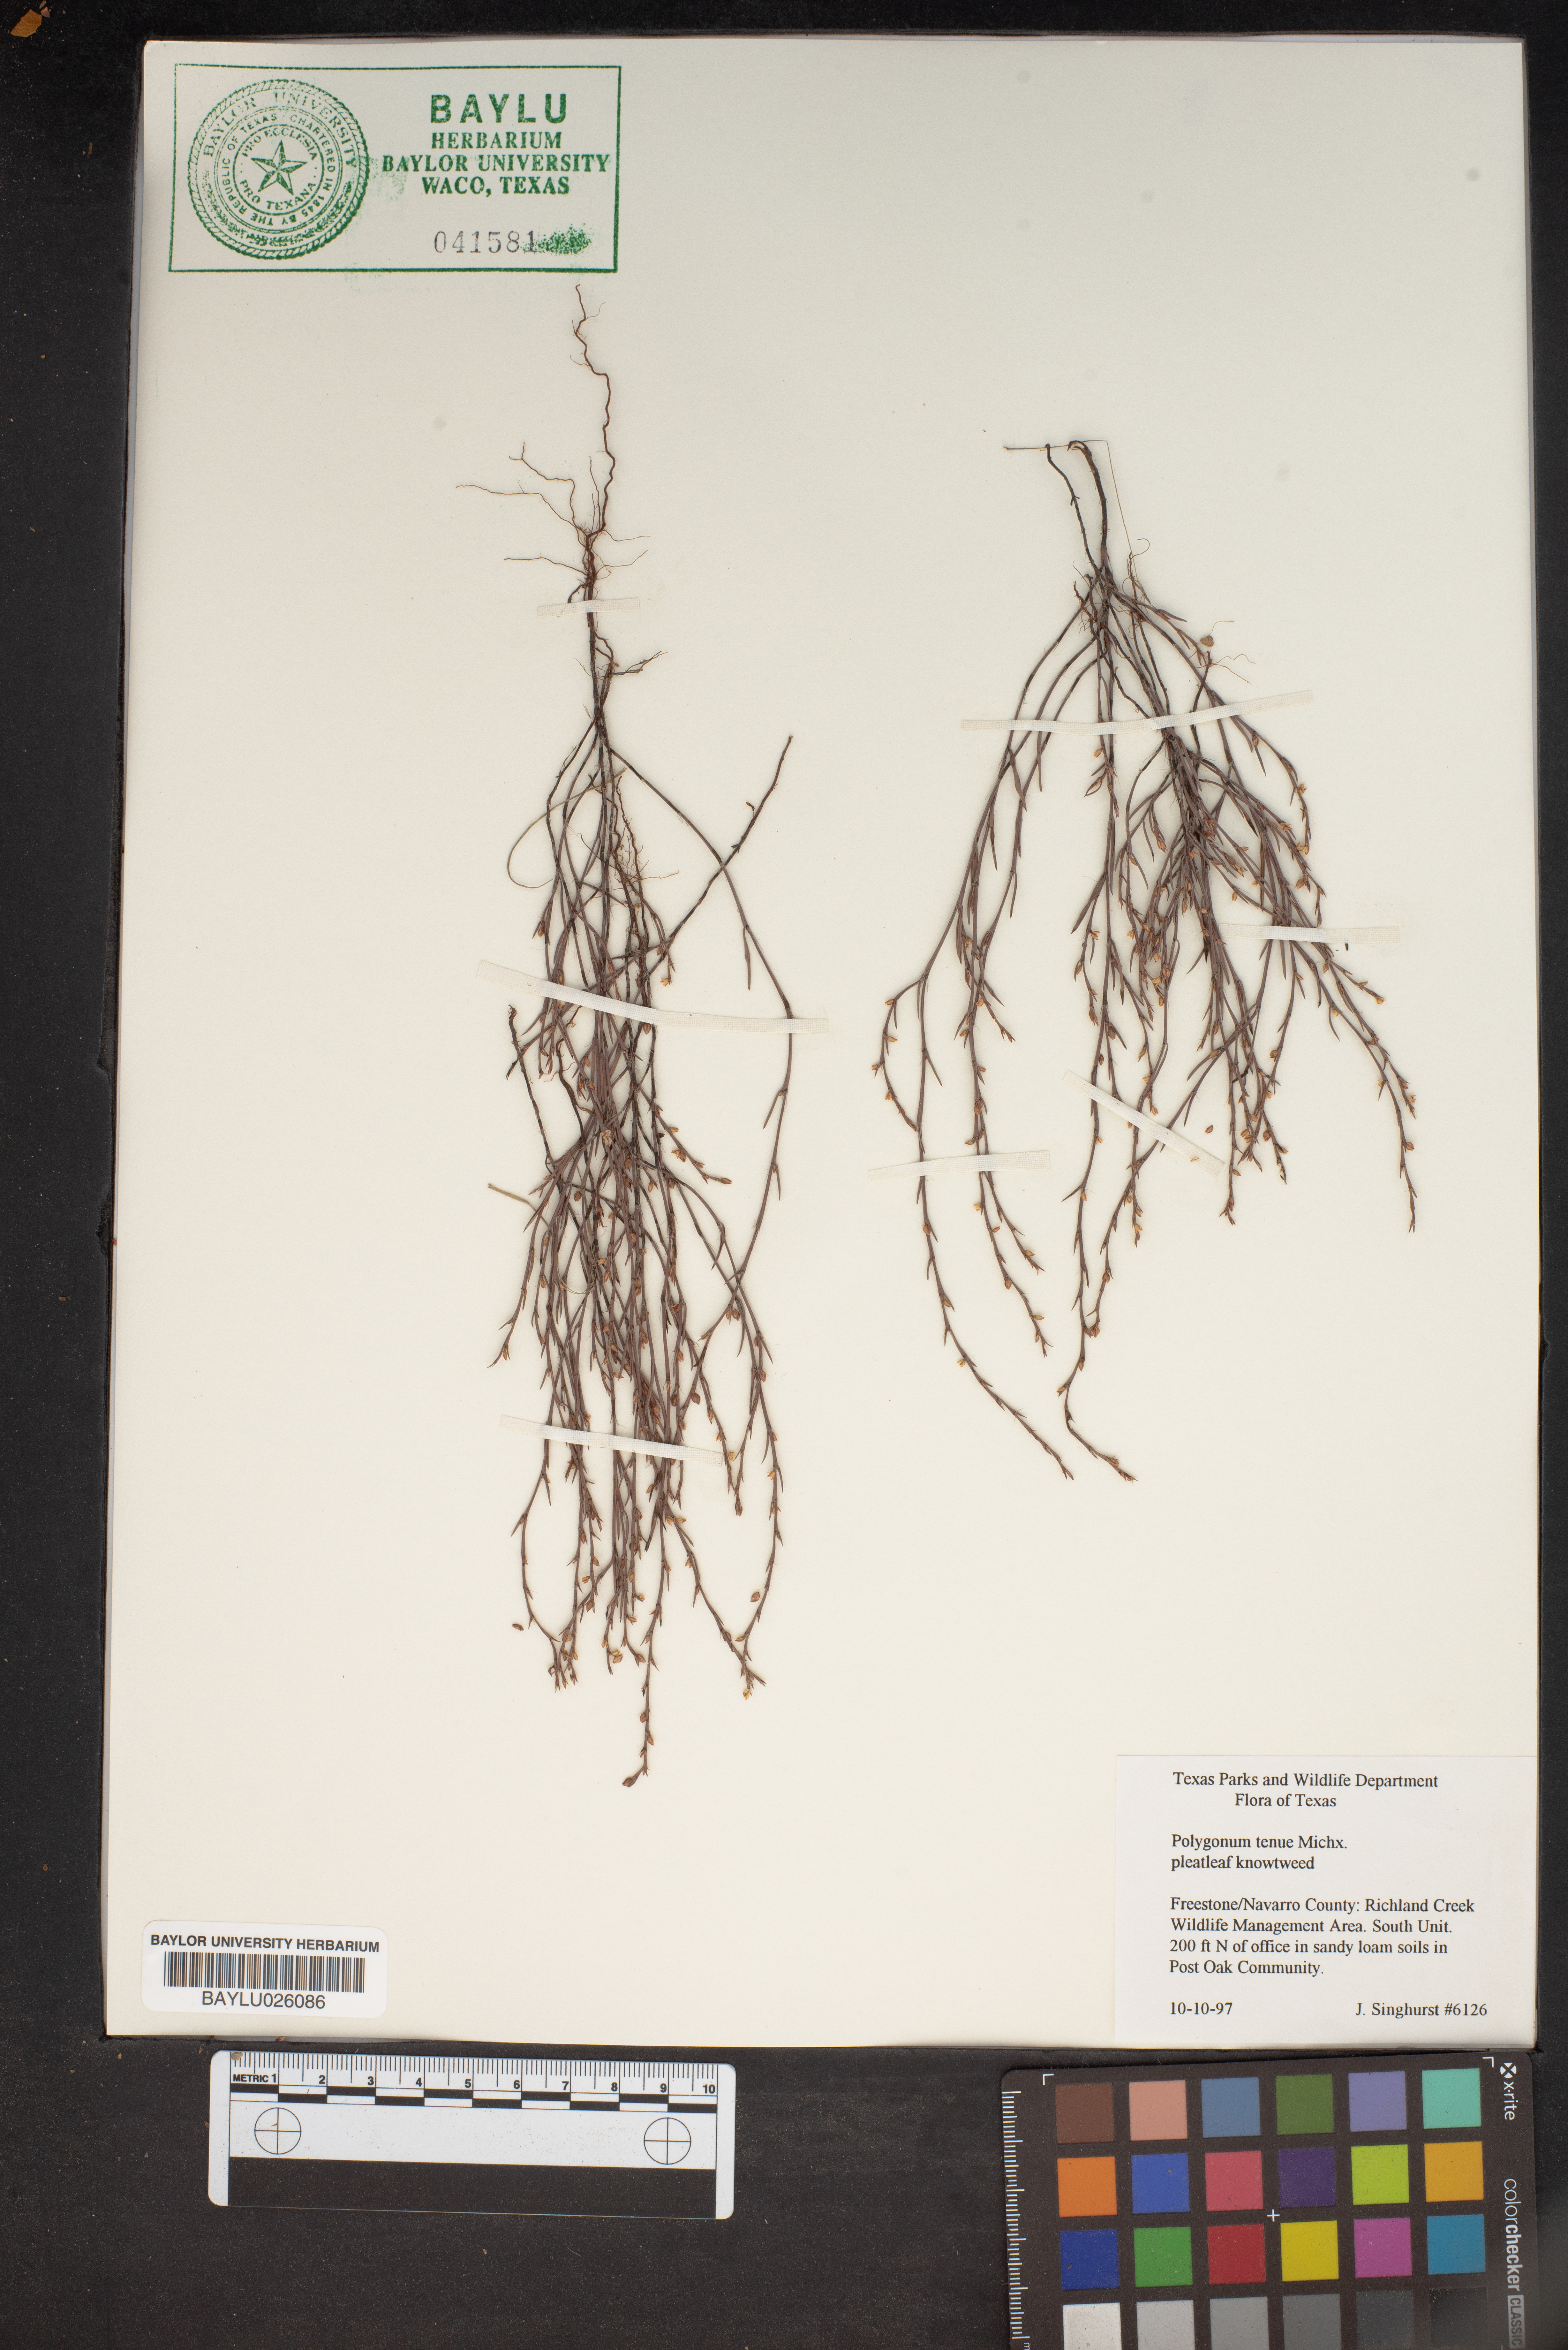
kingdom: Plantae
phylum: Tracheophyta
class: Magnoliopsida
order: Caryophyllales
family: Polygonaceae
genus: Polygonum
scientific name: Polygonum tenue
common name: Pleat-leaved knotweed
